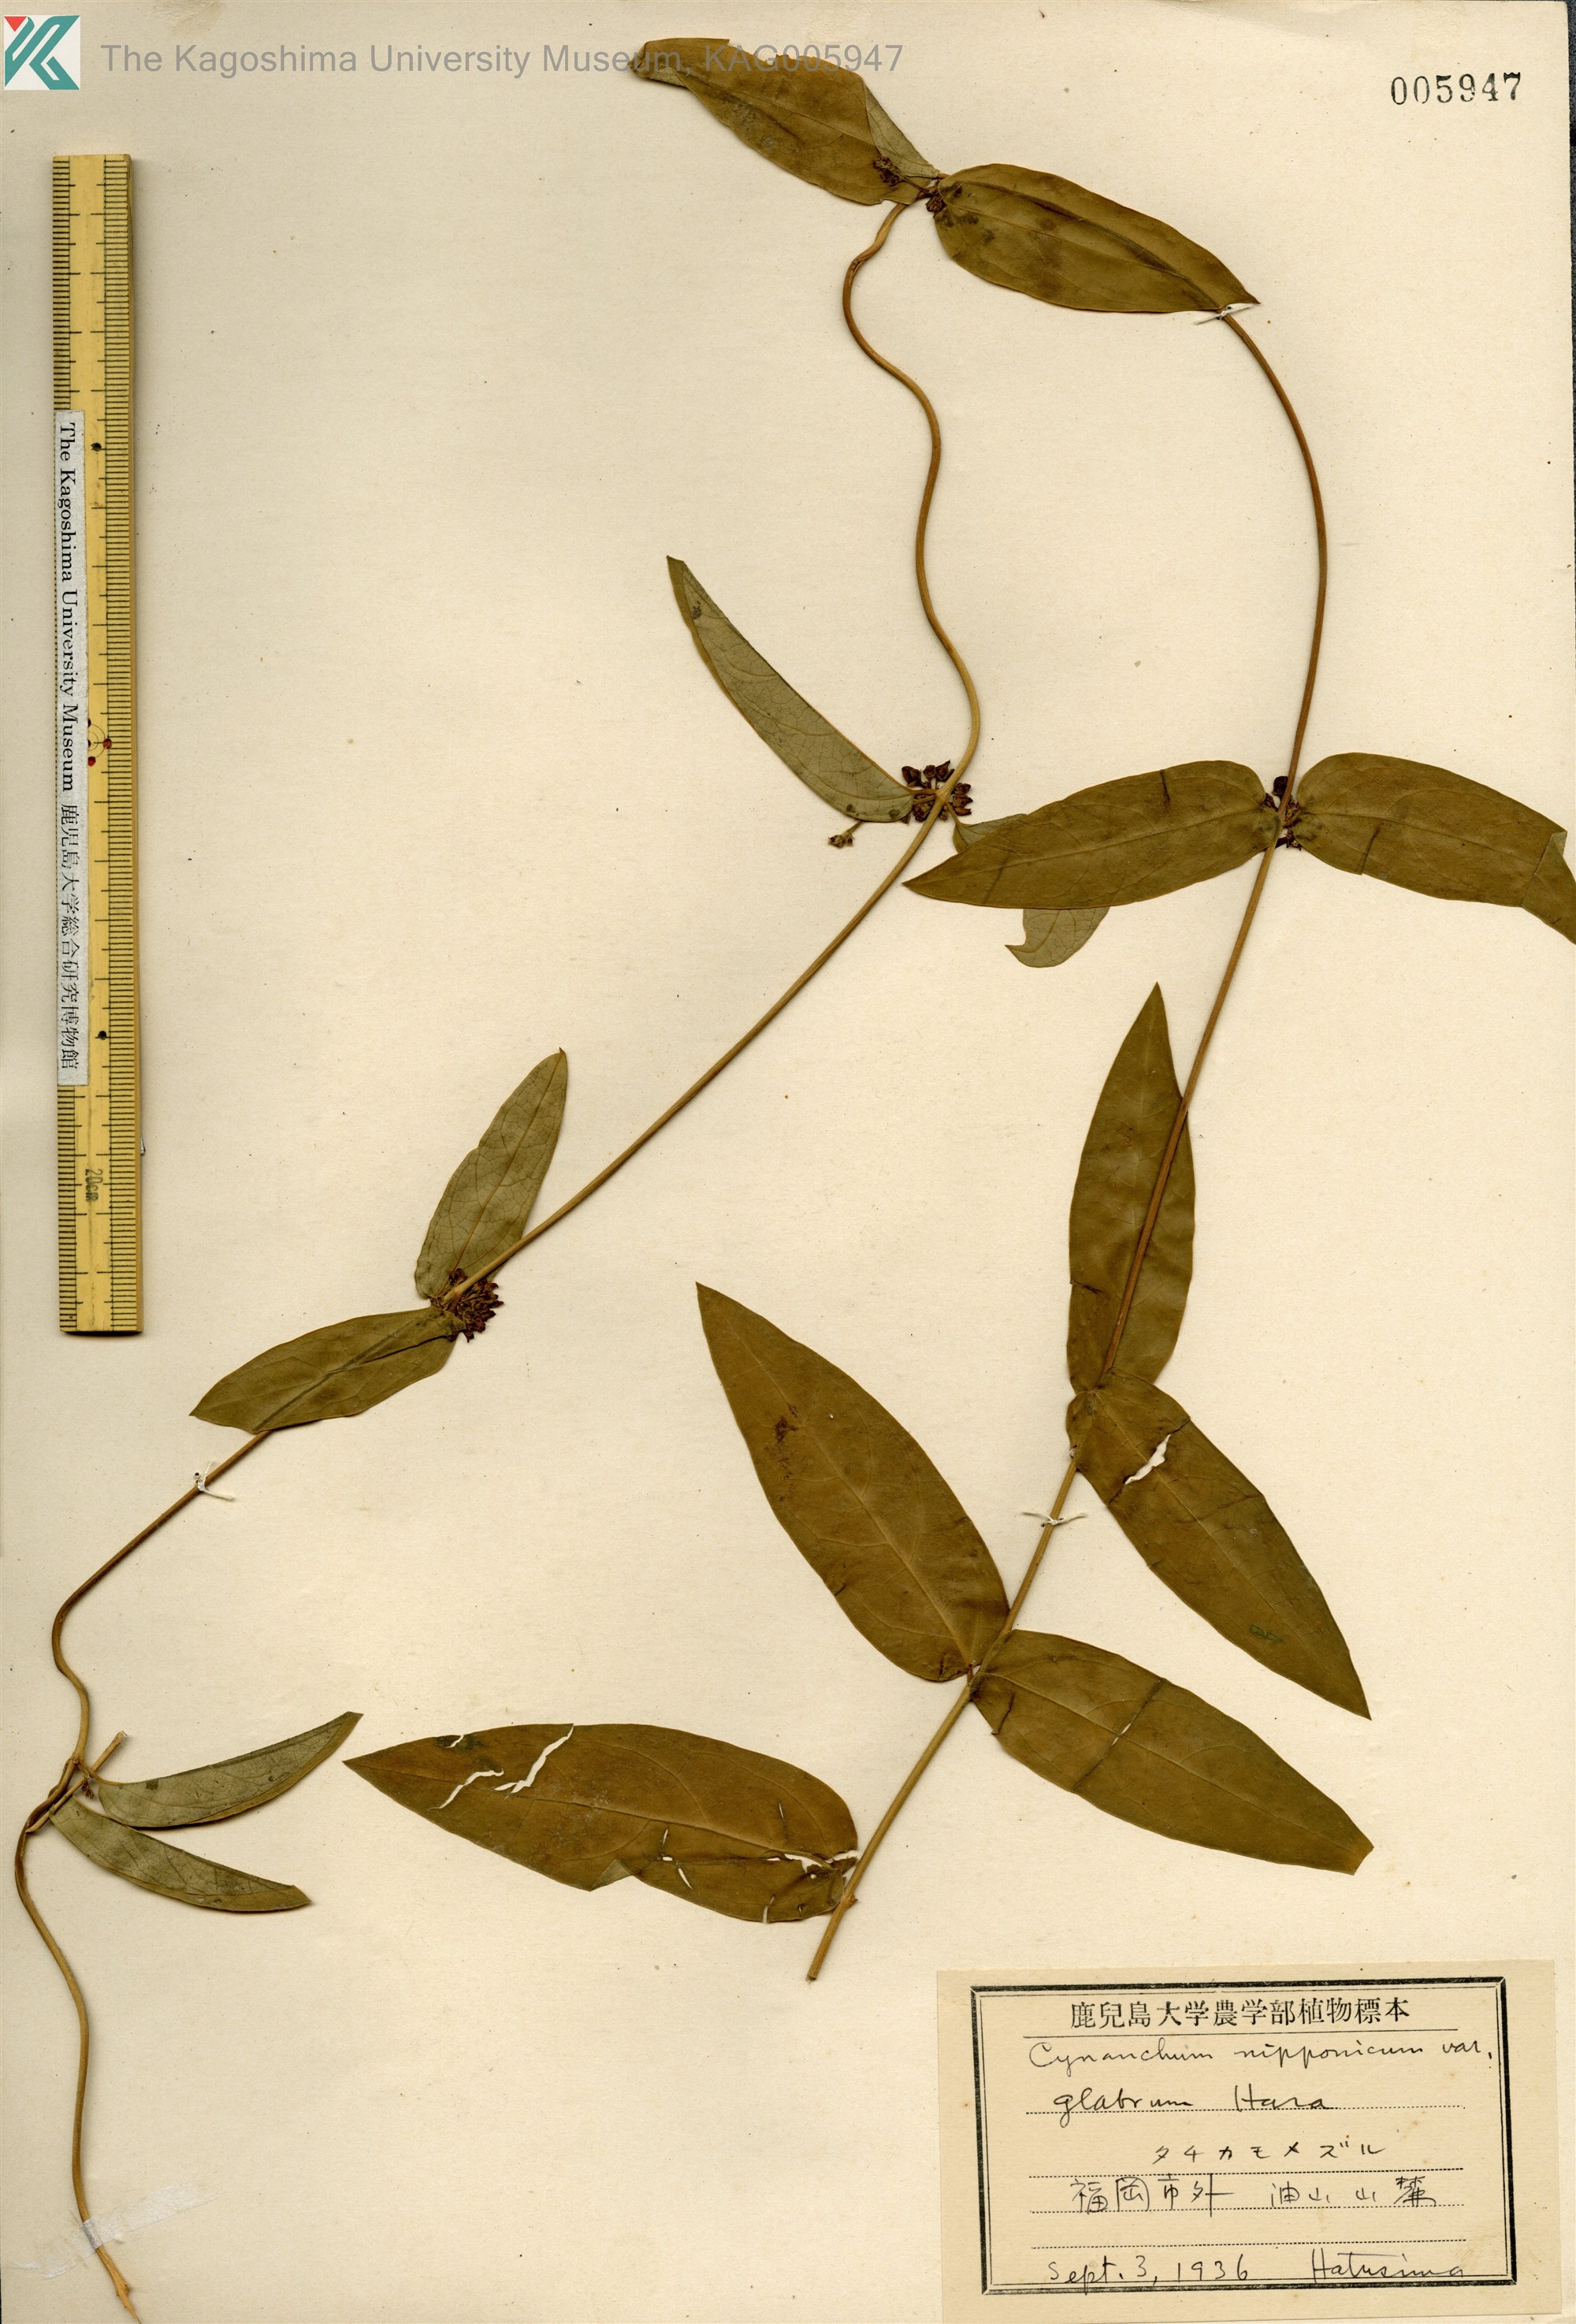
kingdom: Plantae
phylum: Tracheophyta
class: Magnoliopsida
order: Gentianales
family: Apocynaceae
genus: Vincetoxicum
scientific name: Vincetoxicum nipponicum
